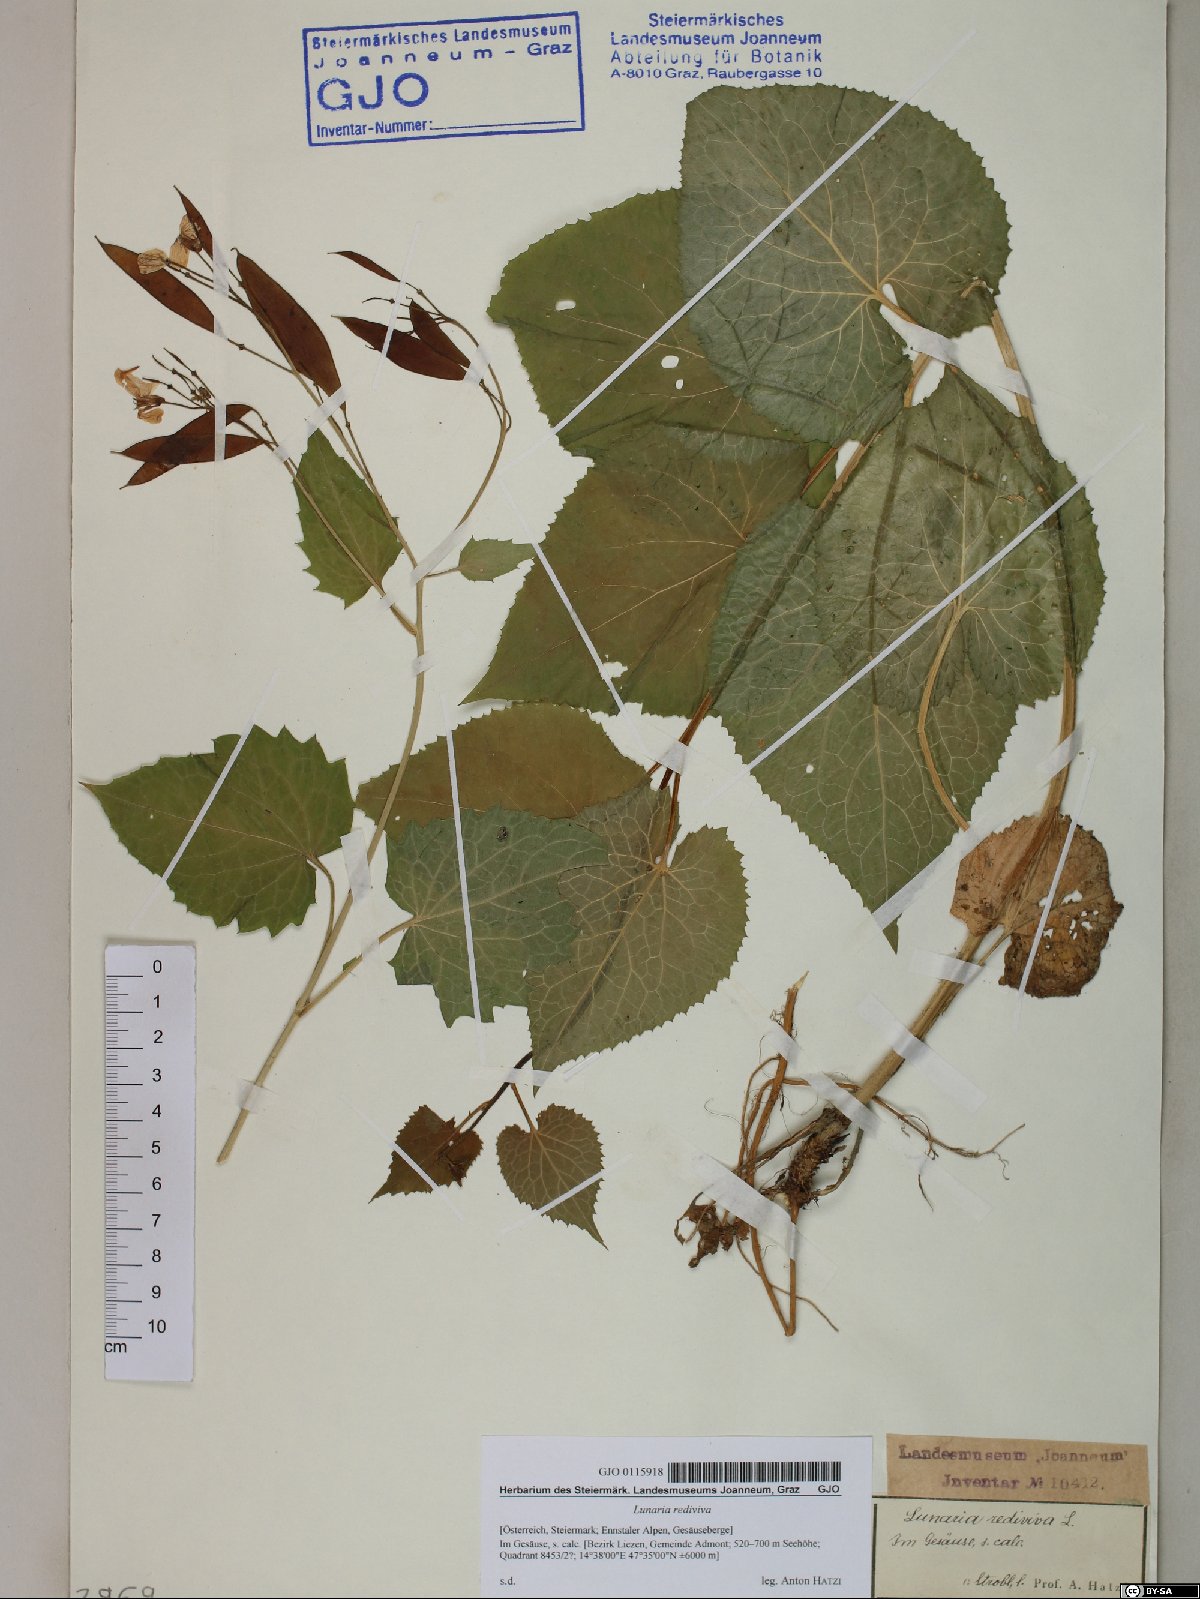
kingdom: Plantae
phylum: Tracheophyta
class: Magnoliopsida
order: Brassicales
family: Brassicaceae
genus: Lunaria
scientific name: Lunaria rediviva
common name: Perennial honesty
